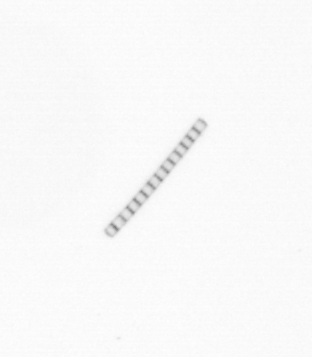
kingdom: Chromista
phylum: Ochrophyta
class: Bacillariophyceae
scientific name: Bacillariophyceae
